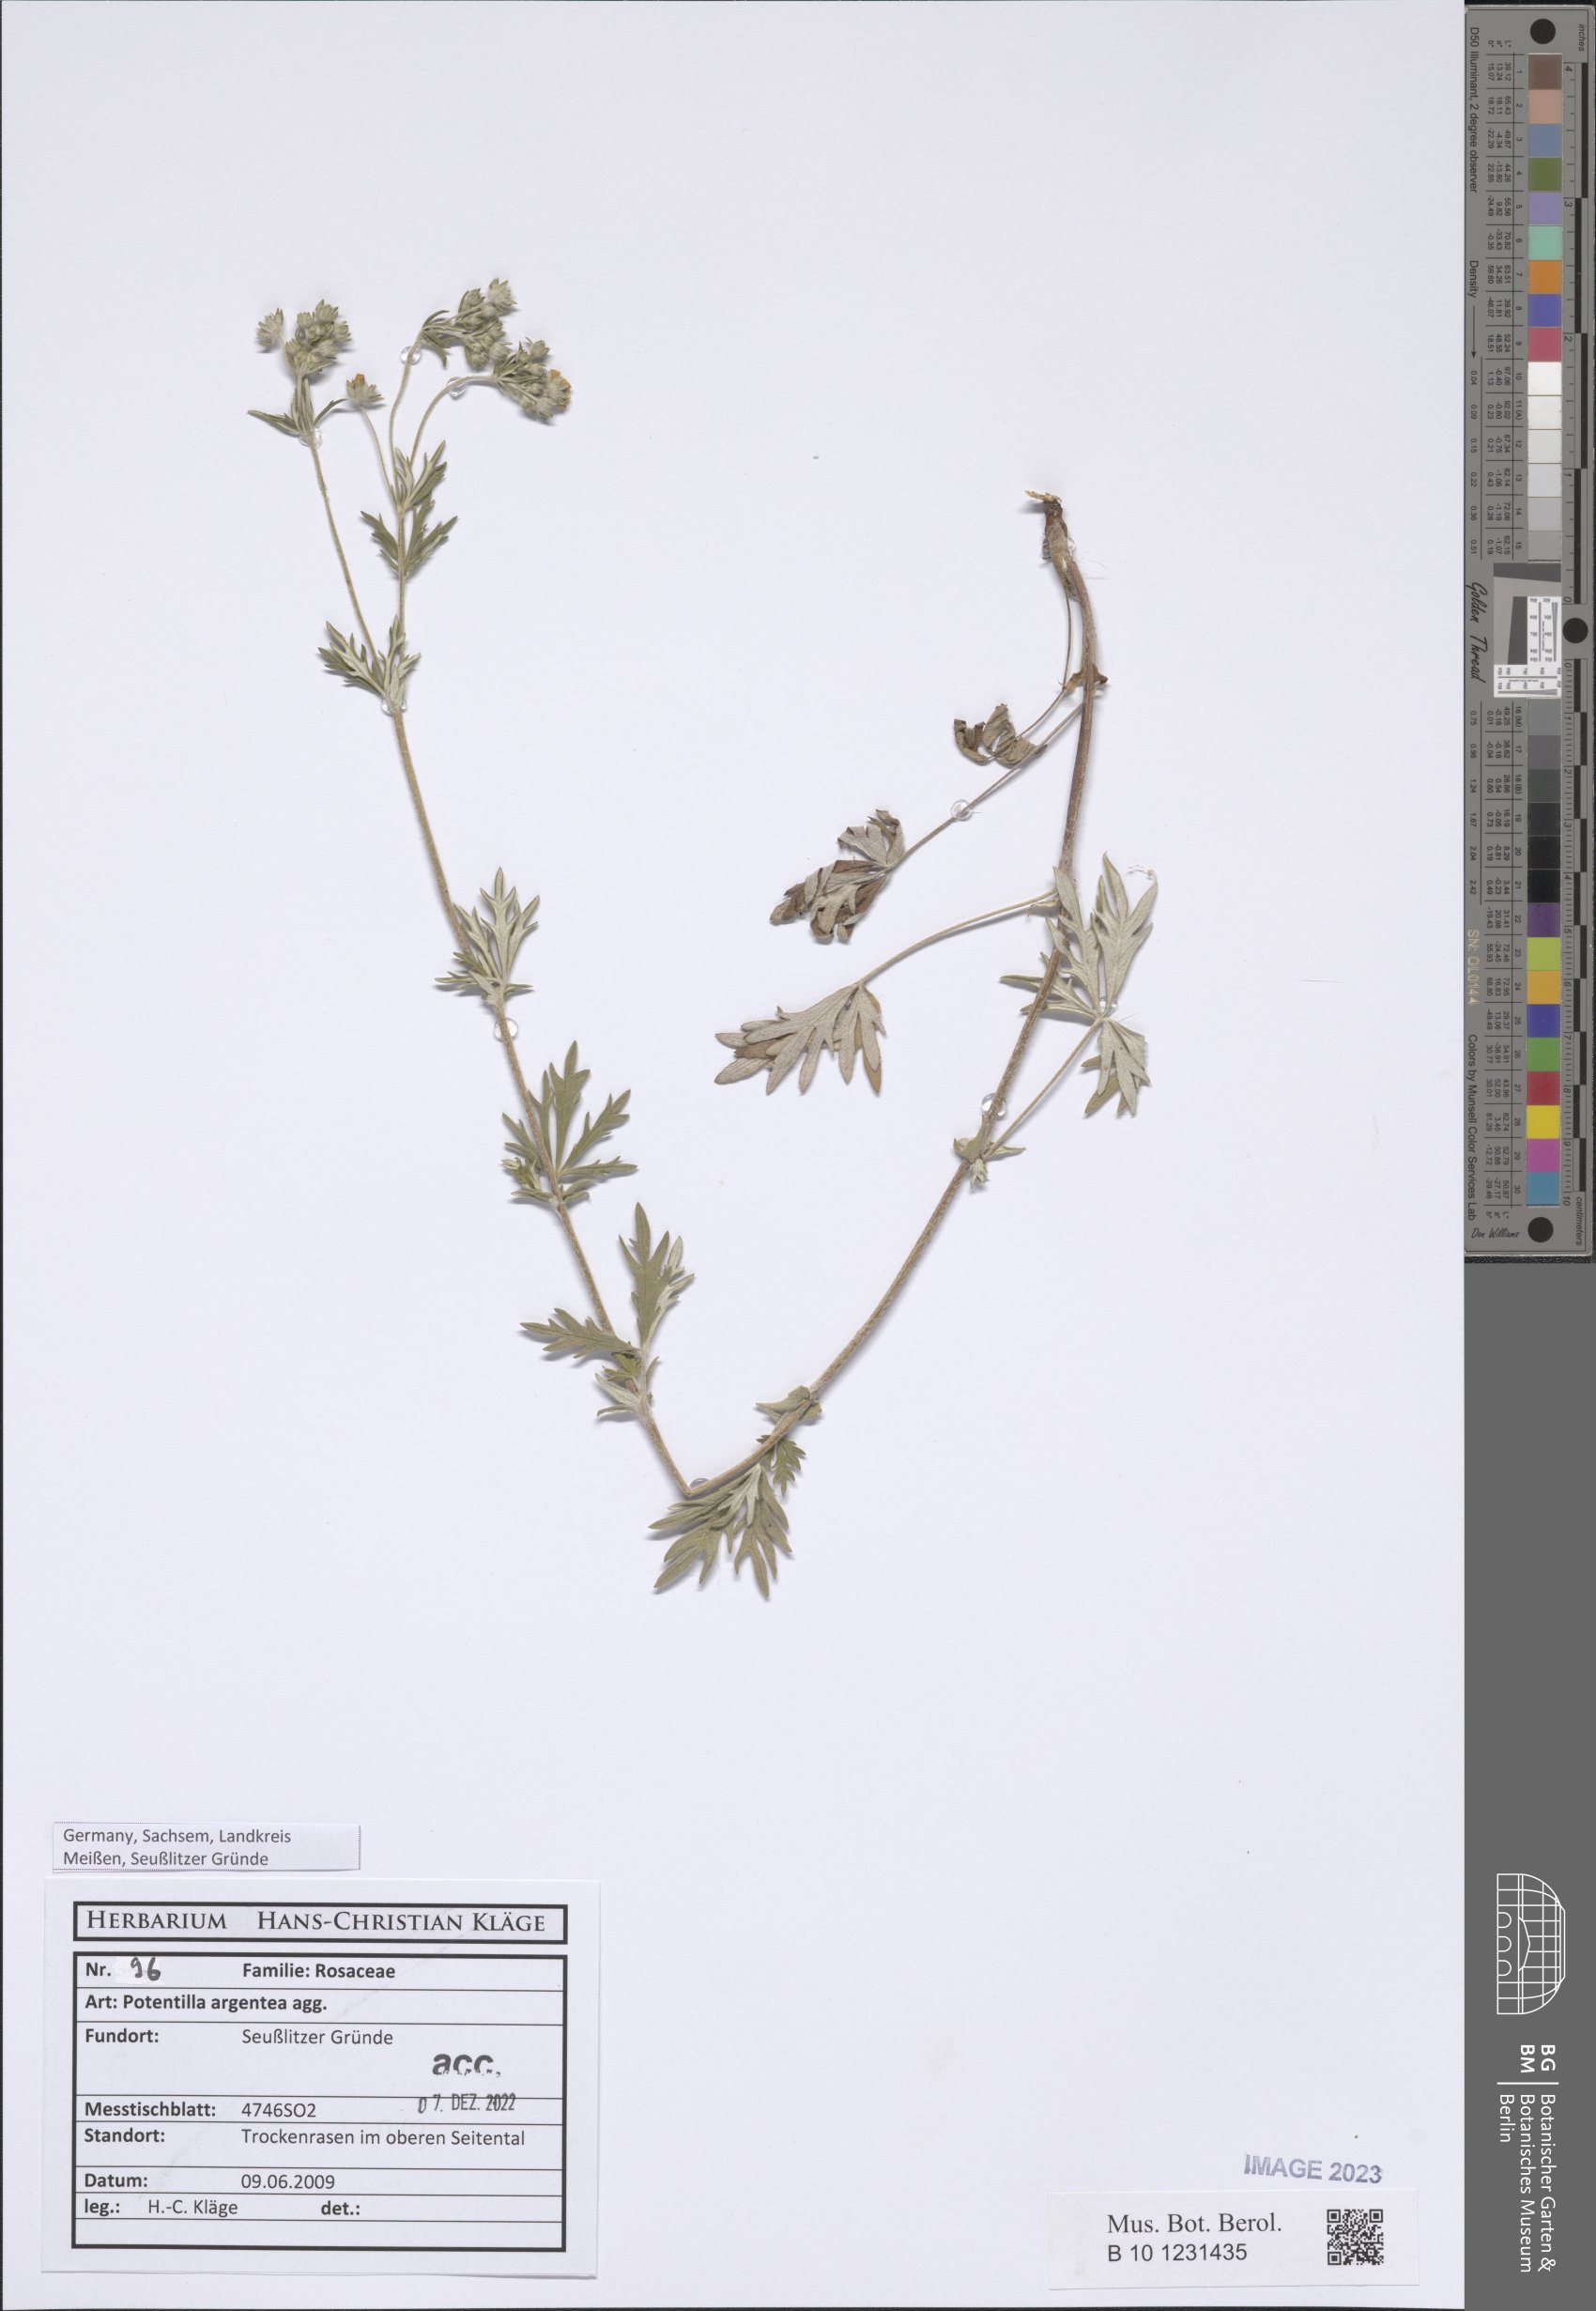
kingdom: Plantae
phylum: Tracheophyta
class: Magnoliopsida
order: Rosales
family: Rosaceae
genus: Potentilla
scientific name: Potentilla argentea
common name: Hoary cinquefoil
